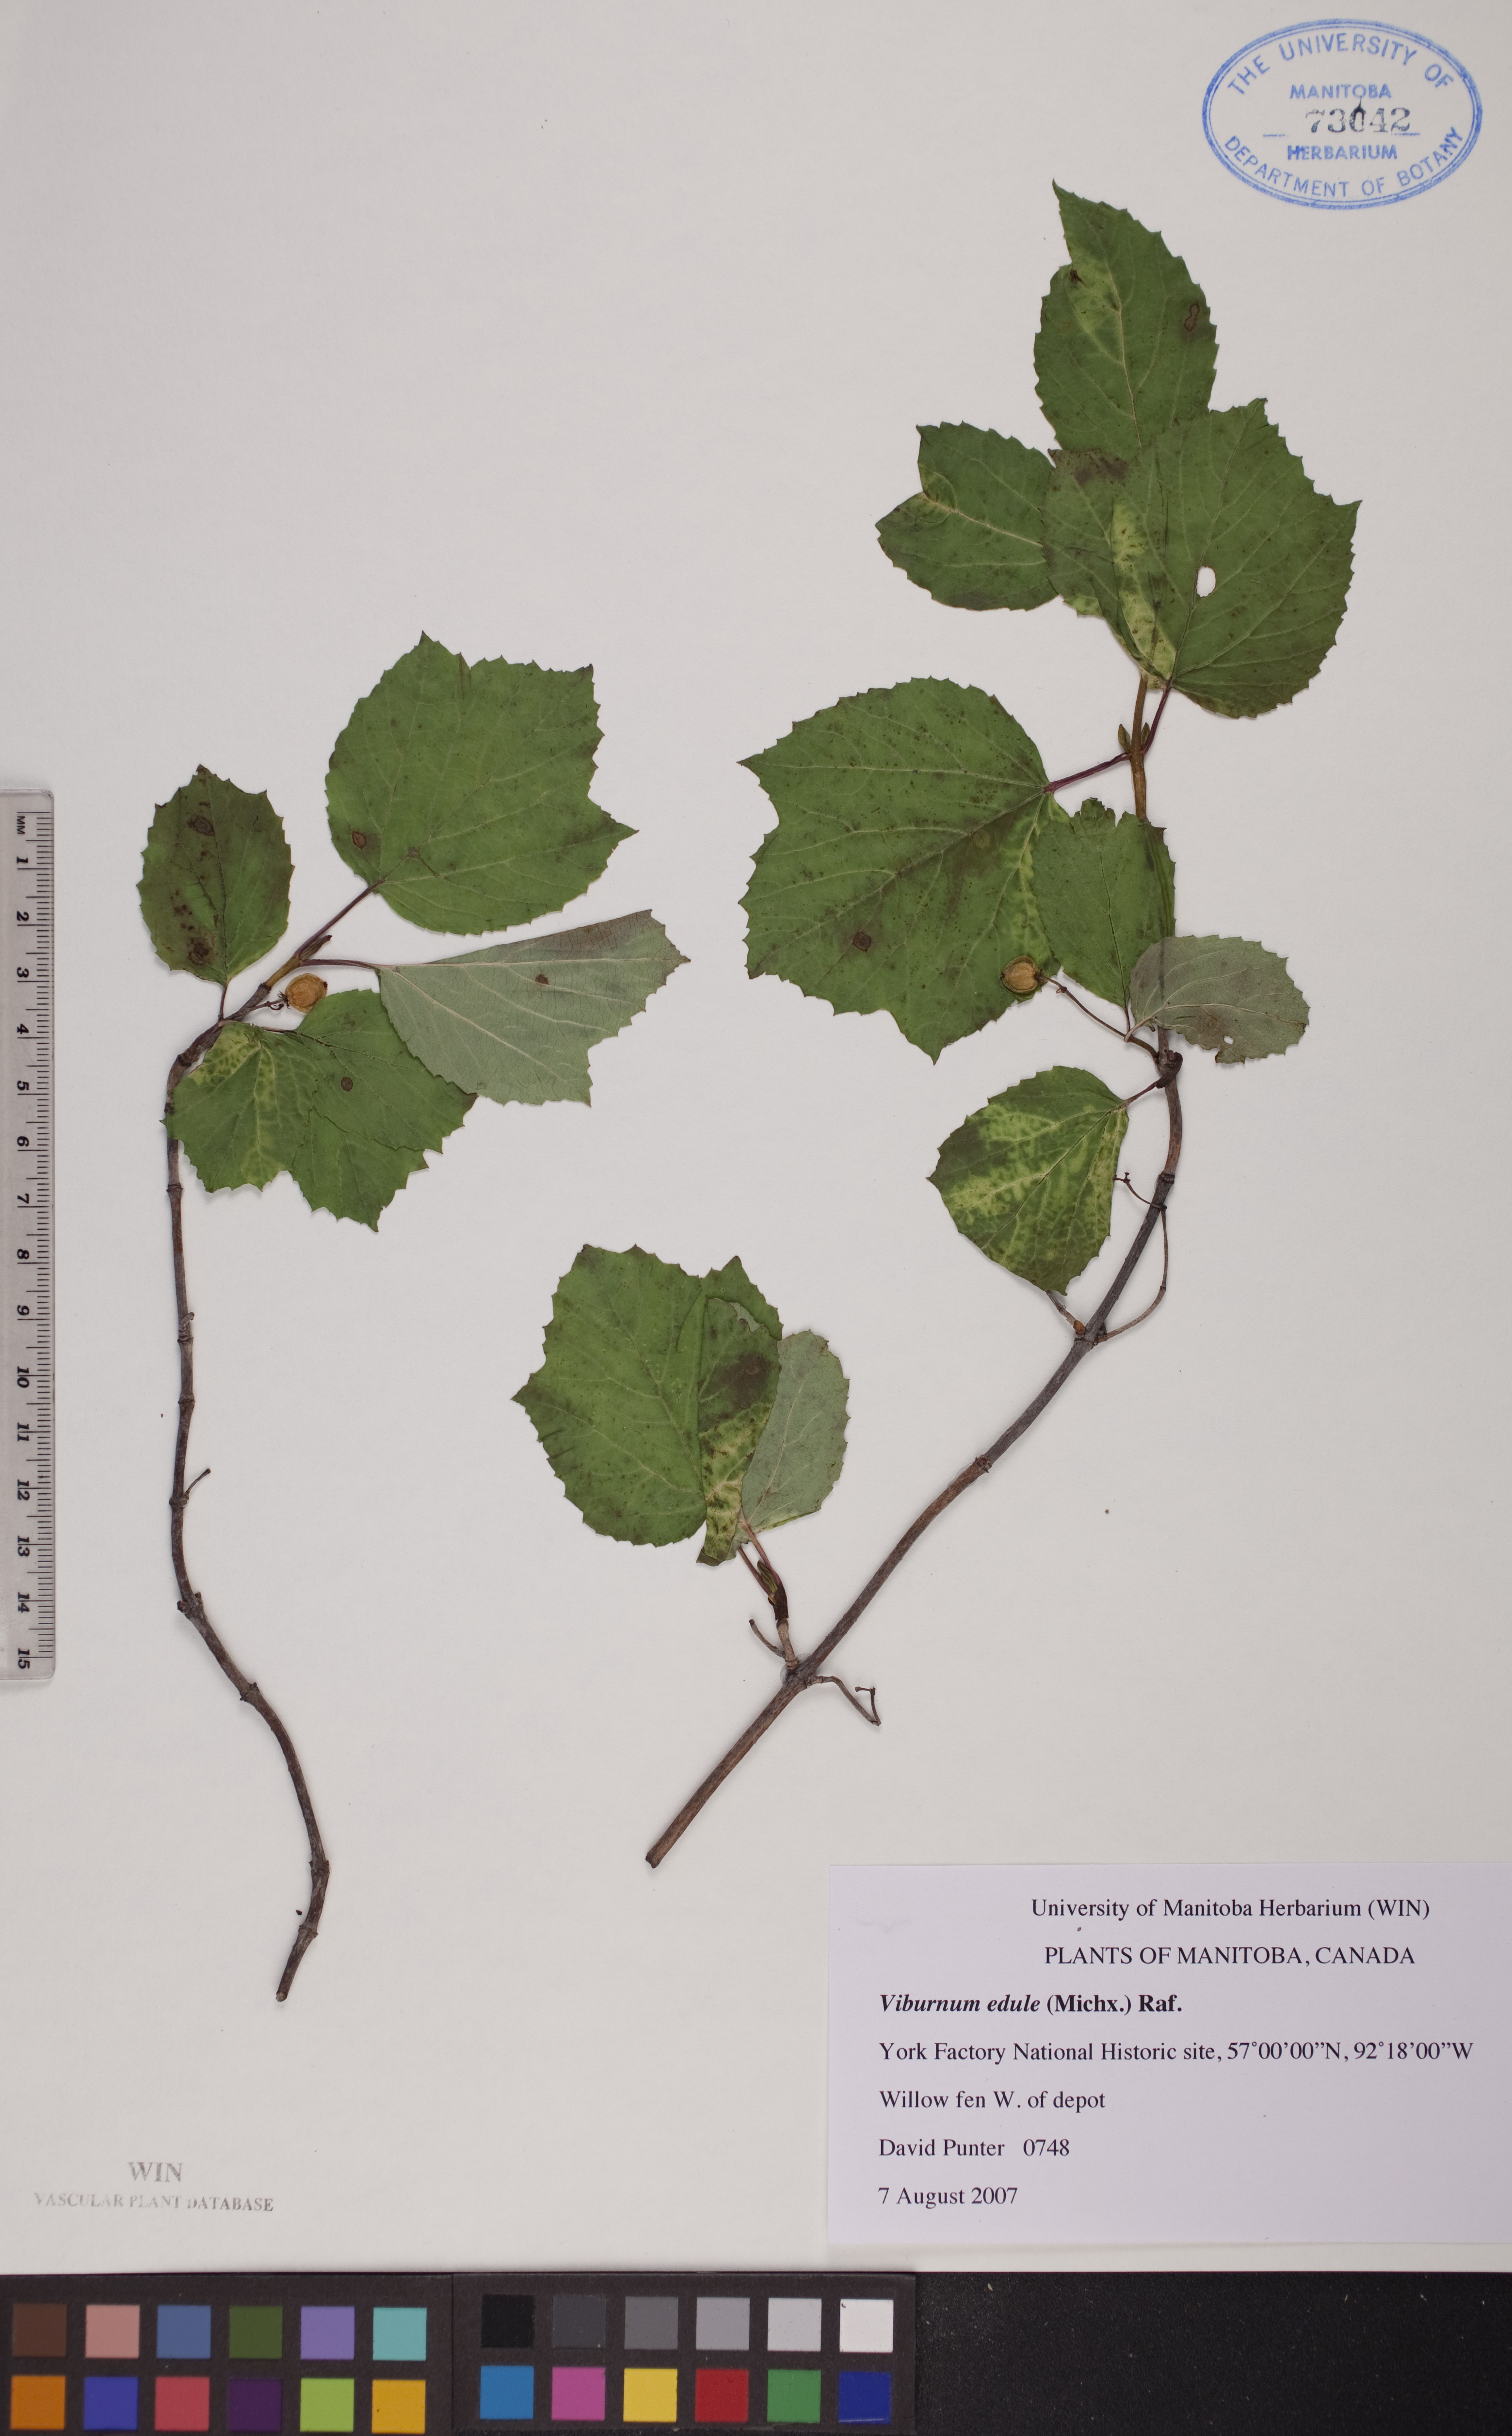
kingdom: Plantae
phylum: Tracheophyta
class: Magnoliopsida
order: Dipsacales
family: Viburnaceae
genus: Viburnum
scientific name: Viburnum edule
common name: Mooseberry
